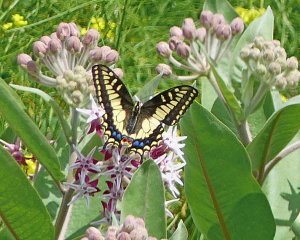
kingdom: Animalia
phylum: Arthropoda
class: Insecta
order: Lepidoptera
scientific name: Lepidoptera
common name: Butterflies
